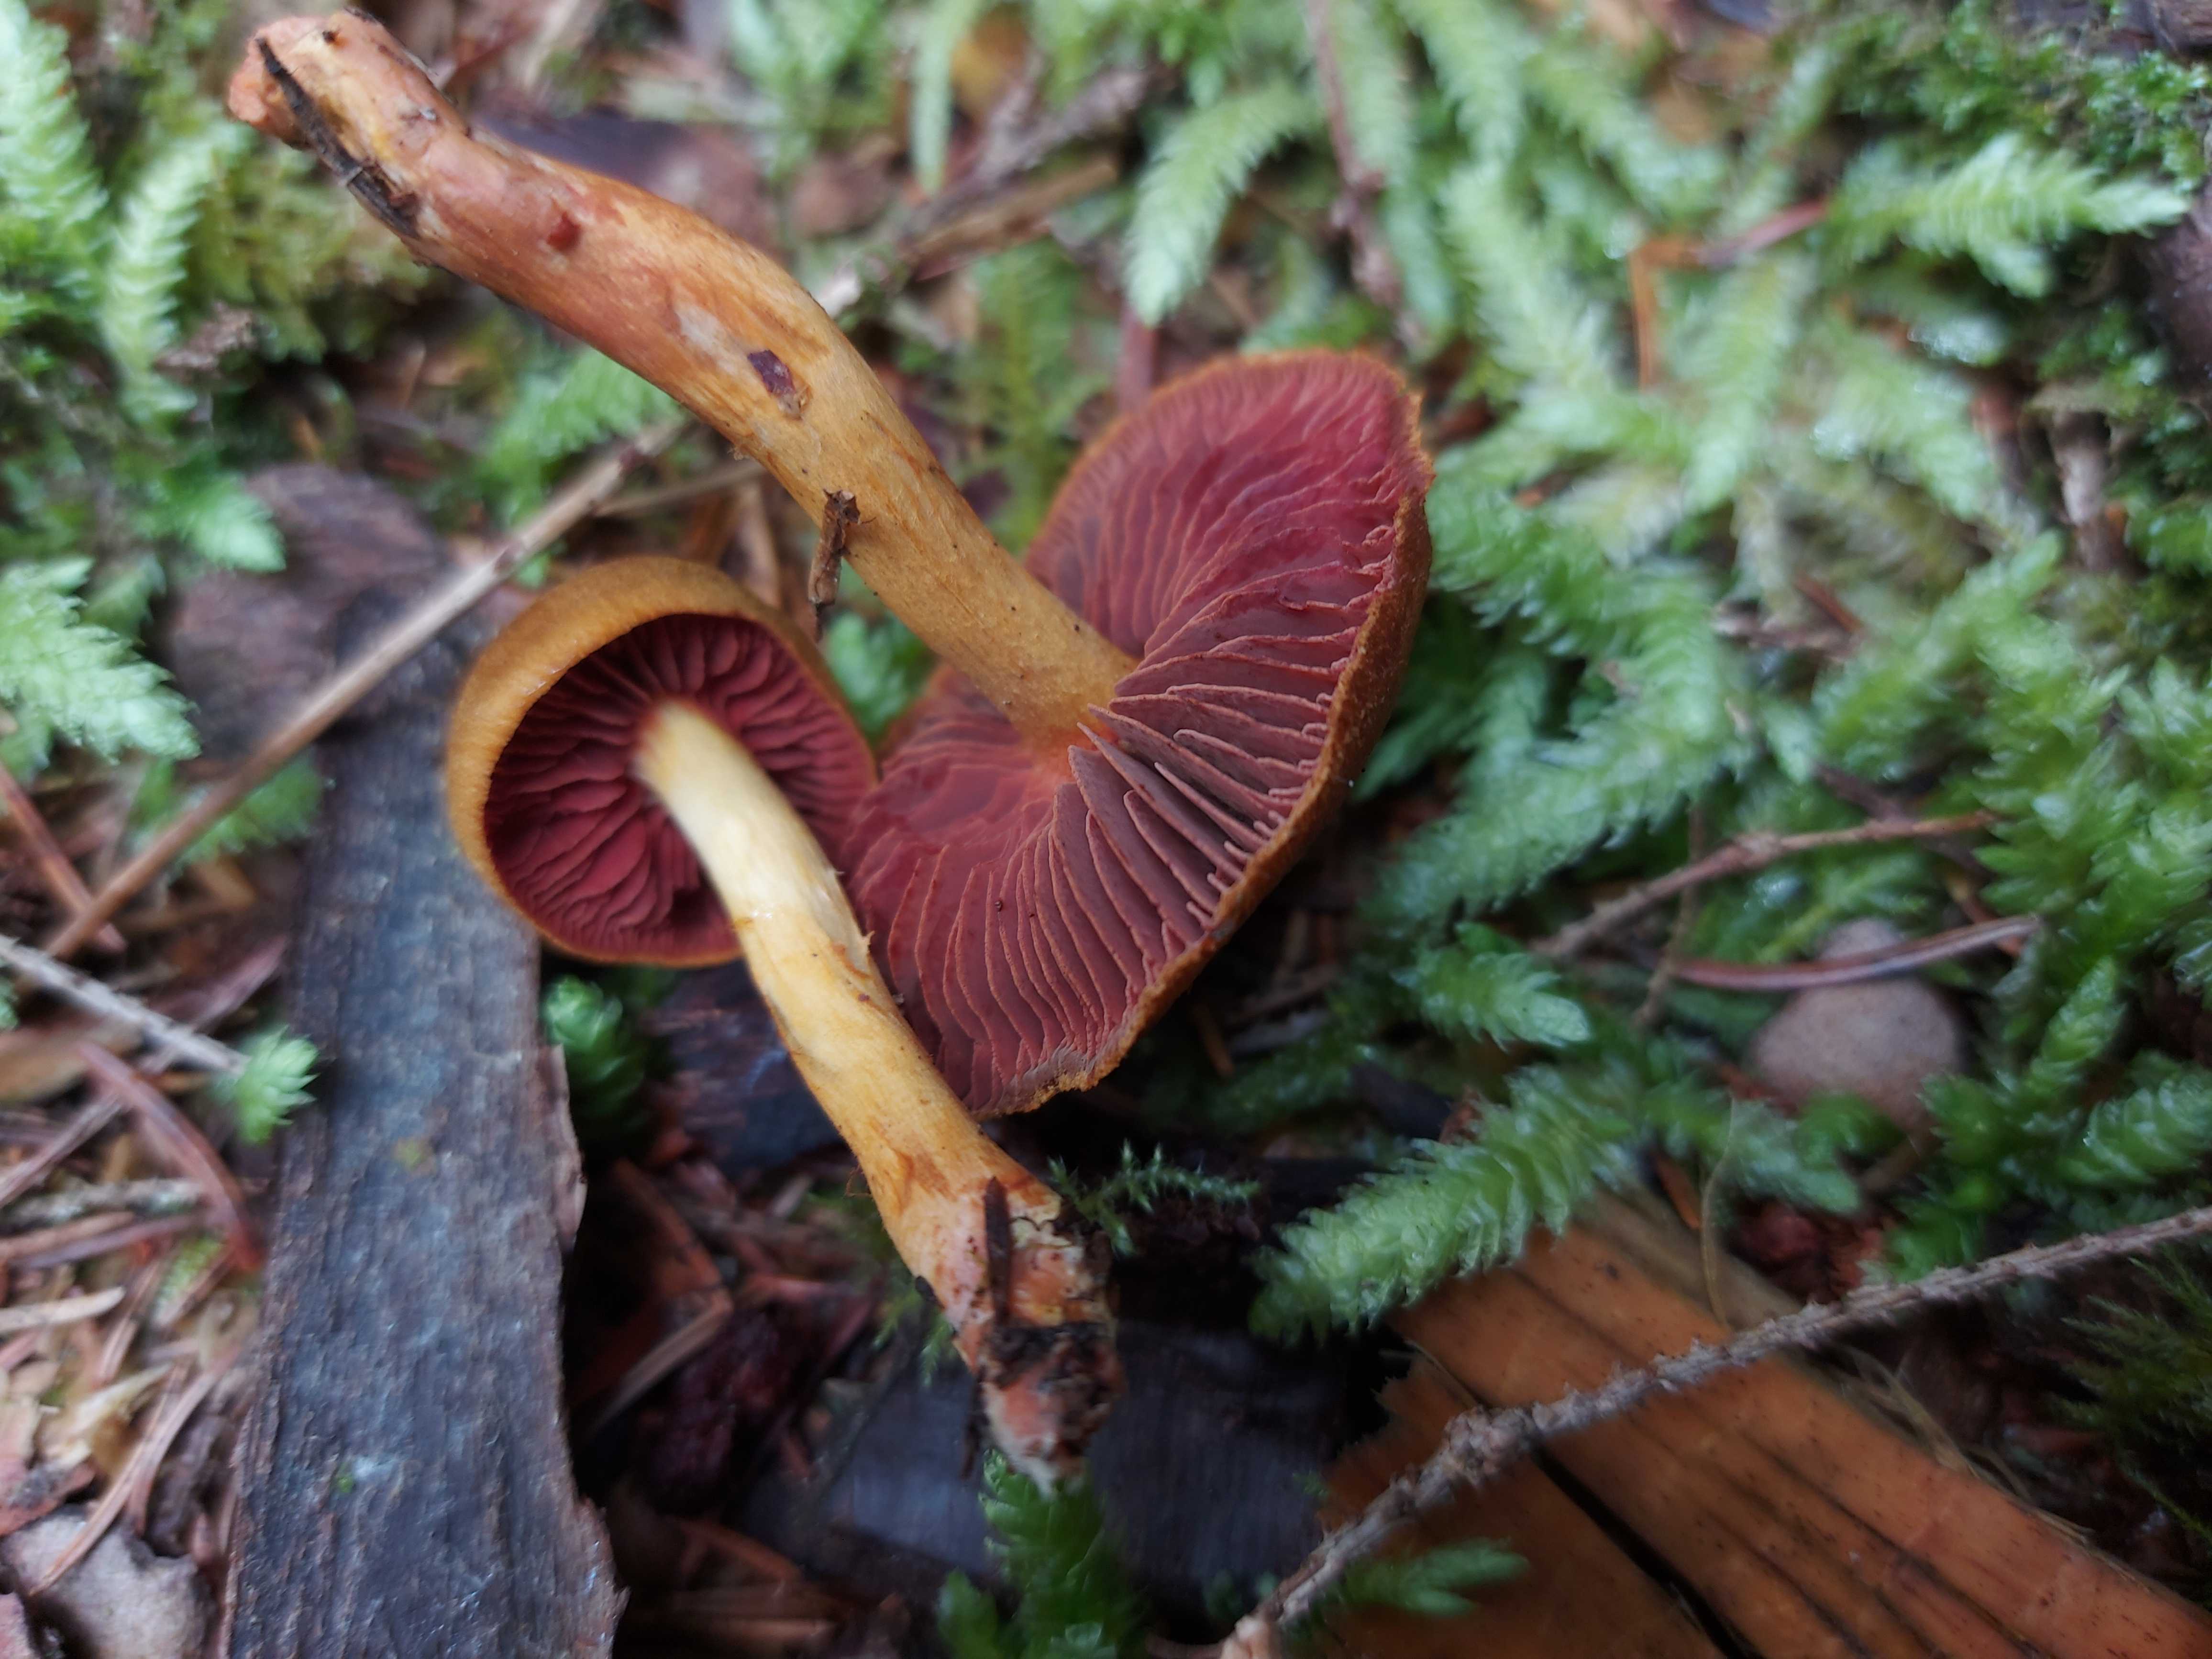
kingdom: Fungi
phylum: Basidiomycota
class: Agaricomycetes
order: Agaricales
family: Cortinariaceae
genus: Cortinarius
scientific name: Cortinarius
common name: cinnoberbladet slørhat
